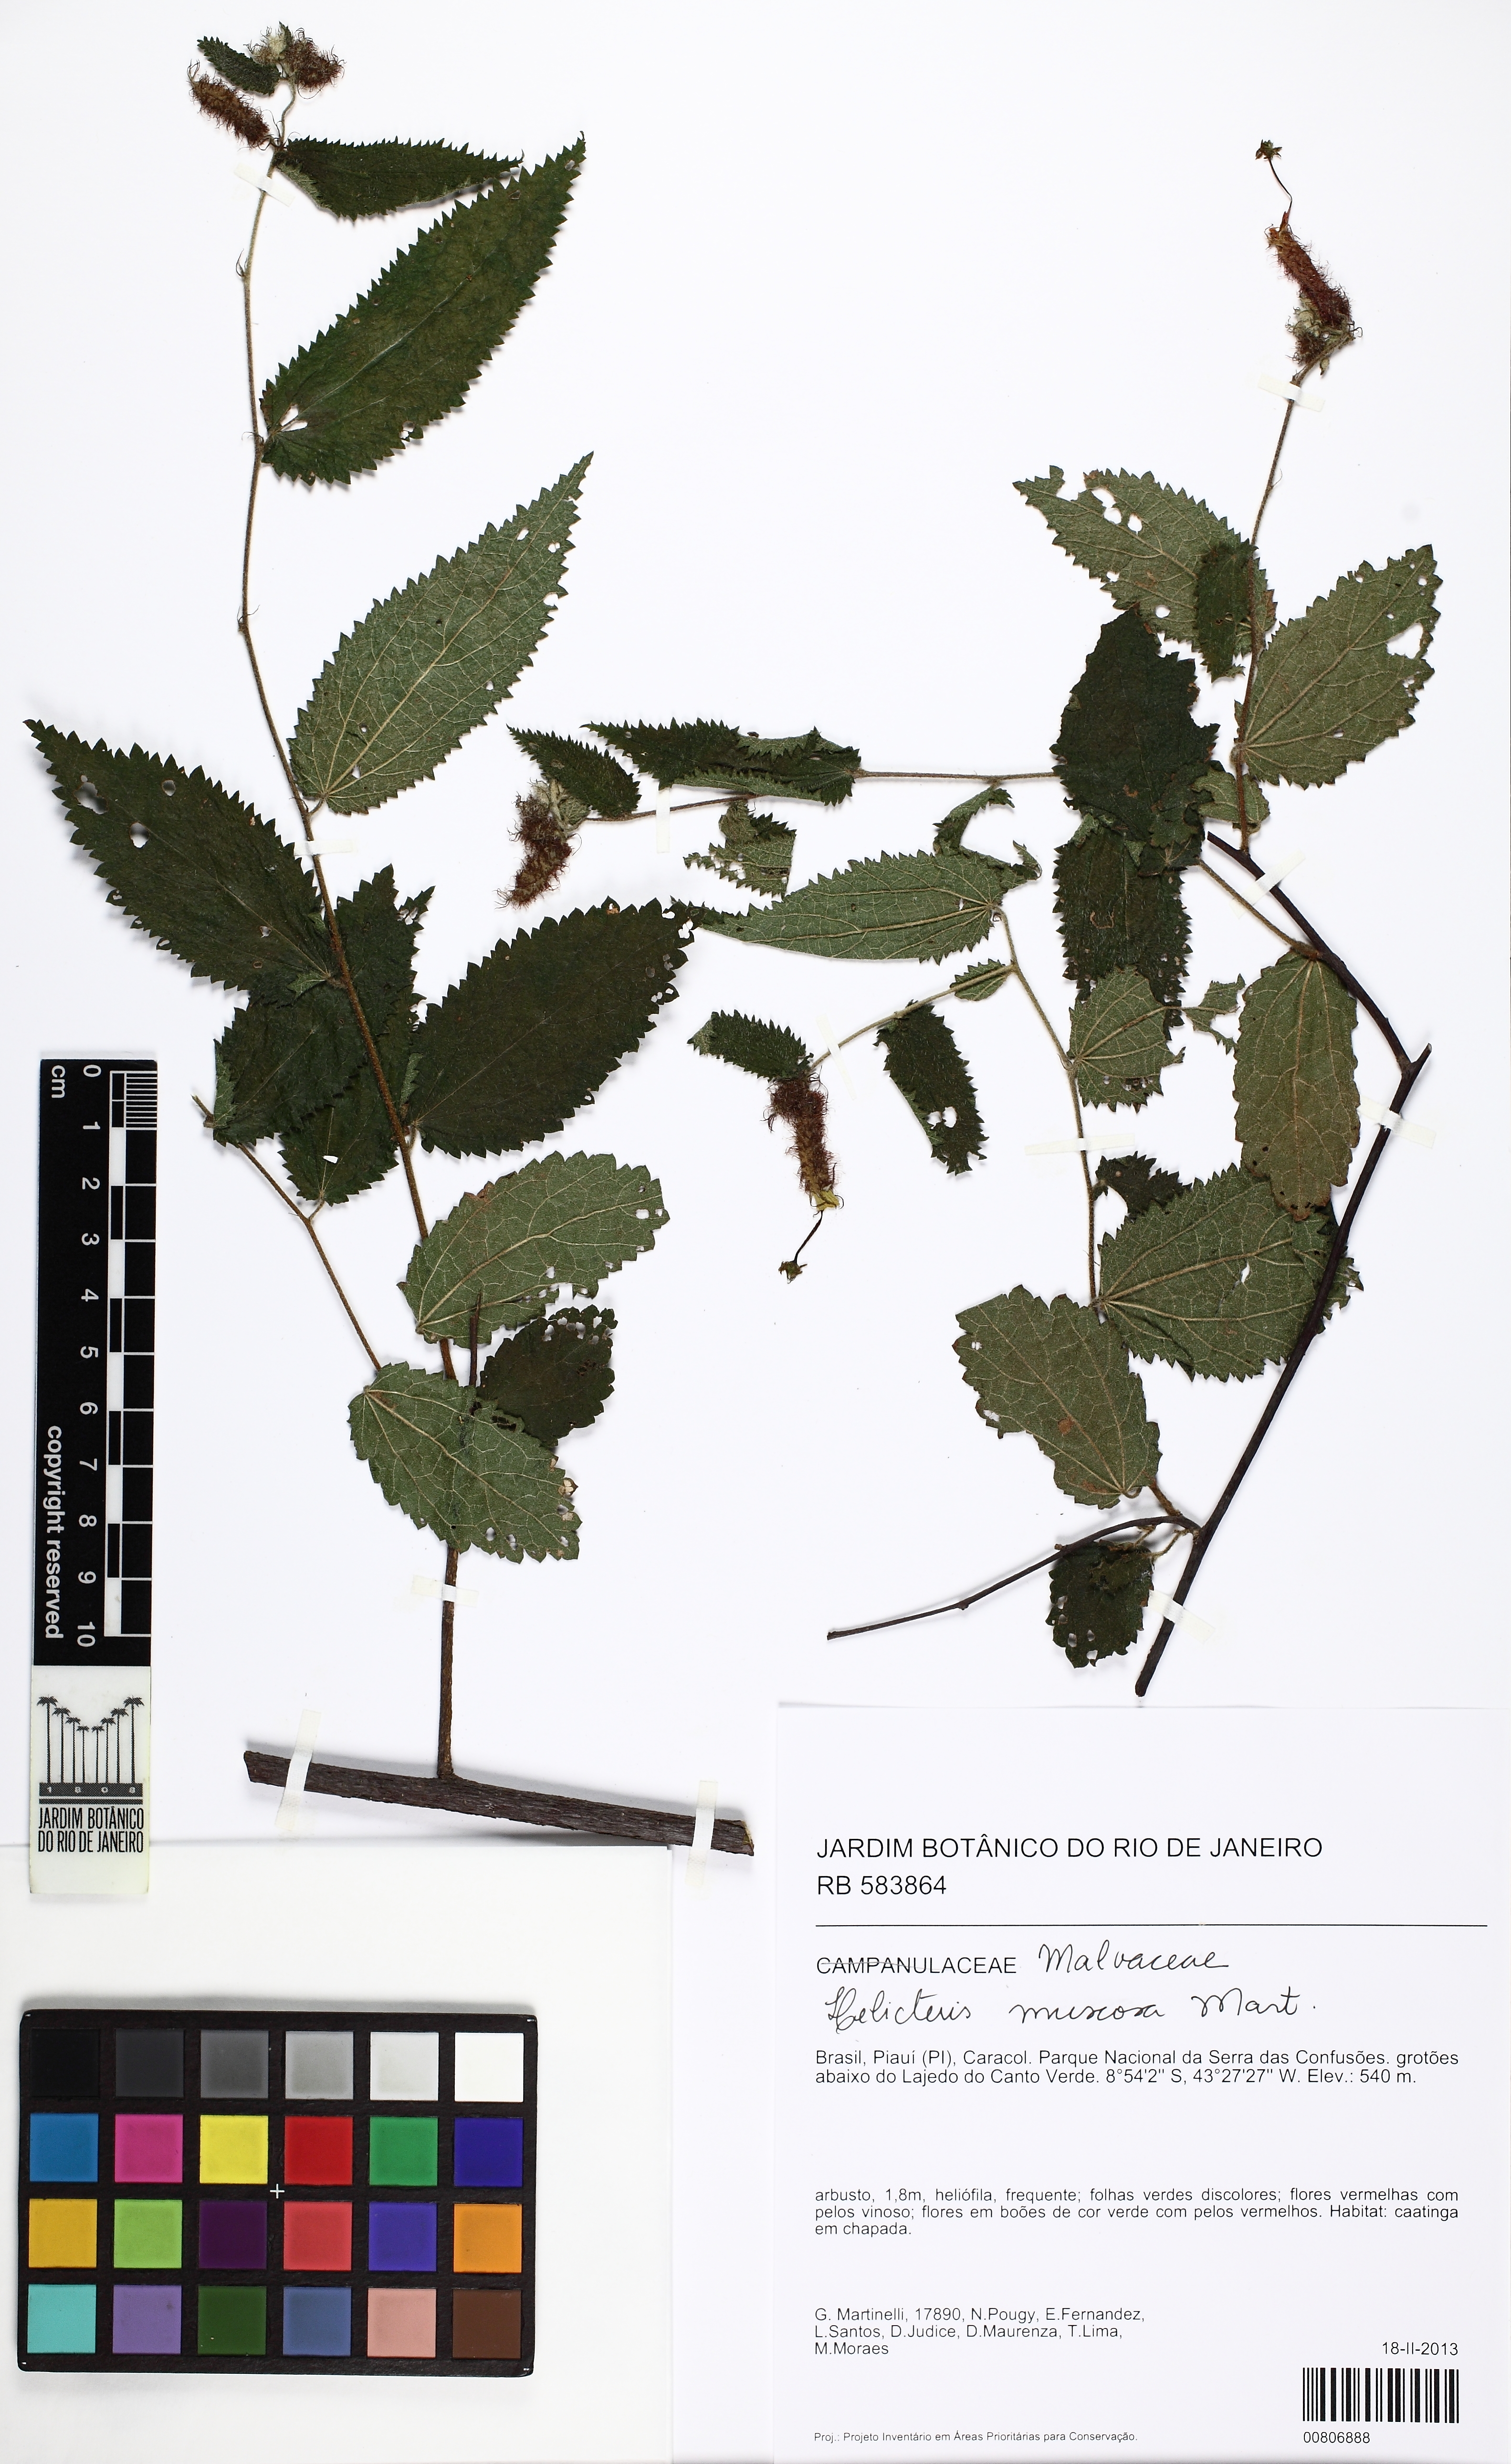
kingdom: Plantae
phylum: Tracheophyta
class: Magnoliopsida
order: Malvales
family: Malvaceae
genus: Helicteres
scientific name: Helicteres muscosa
